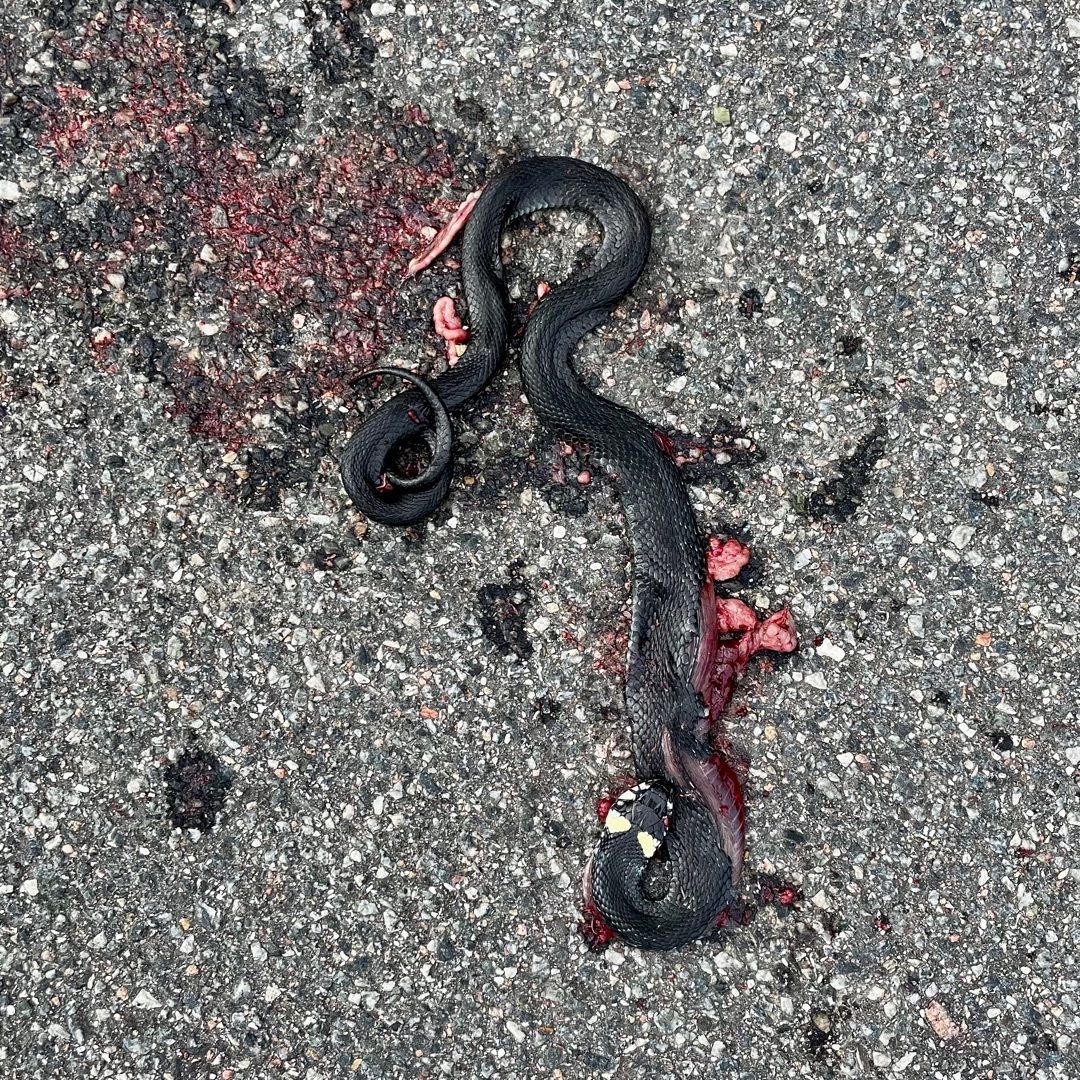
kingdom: Animalia
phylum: Chordata
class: Squamata
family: Colubridae
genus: Natrix
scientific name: Natrix natrix
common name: Snog
